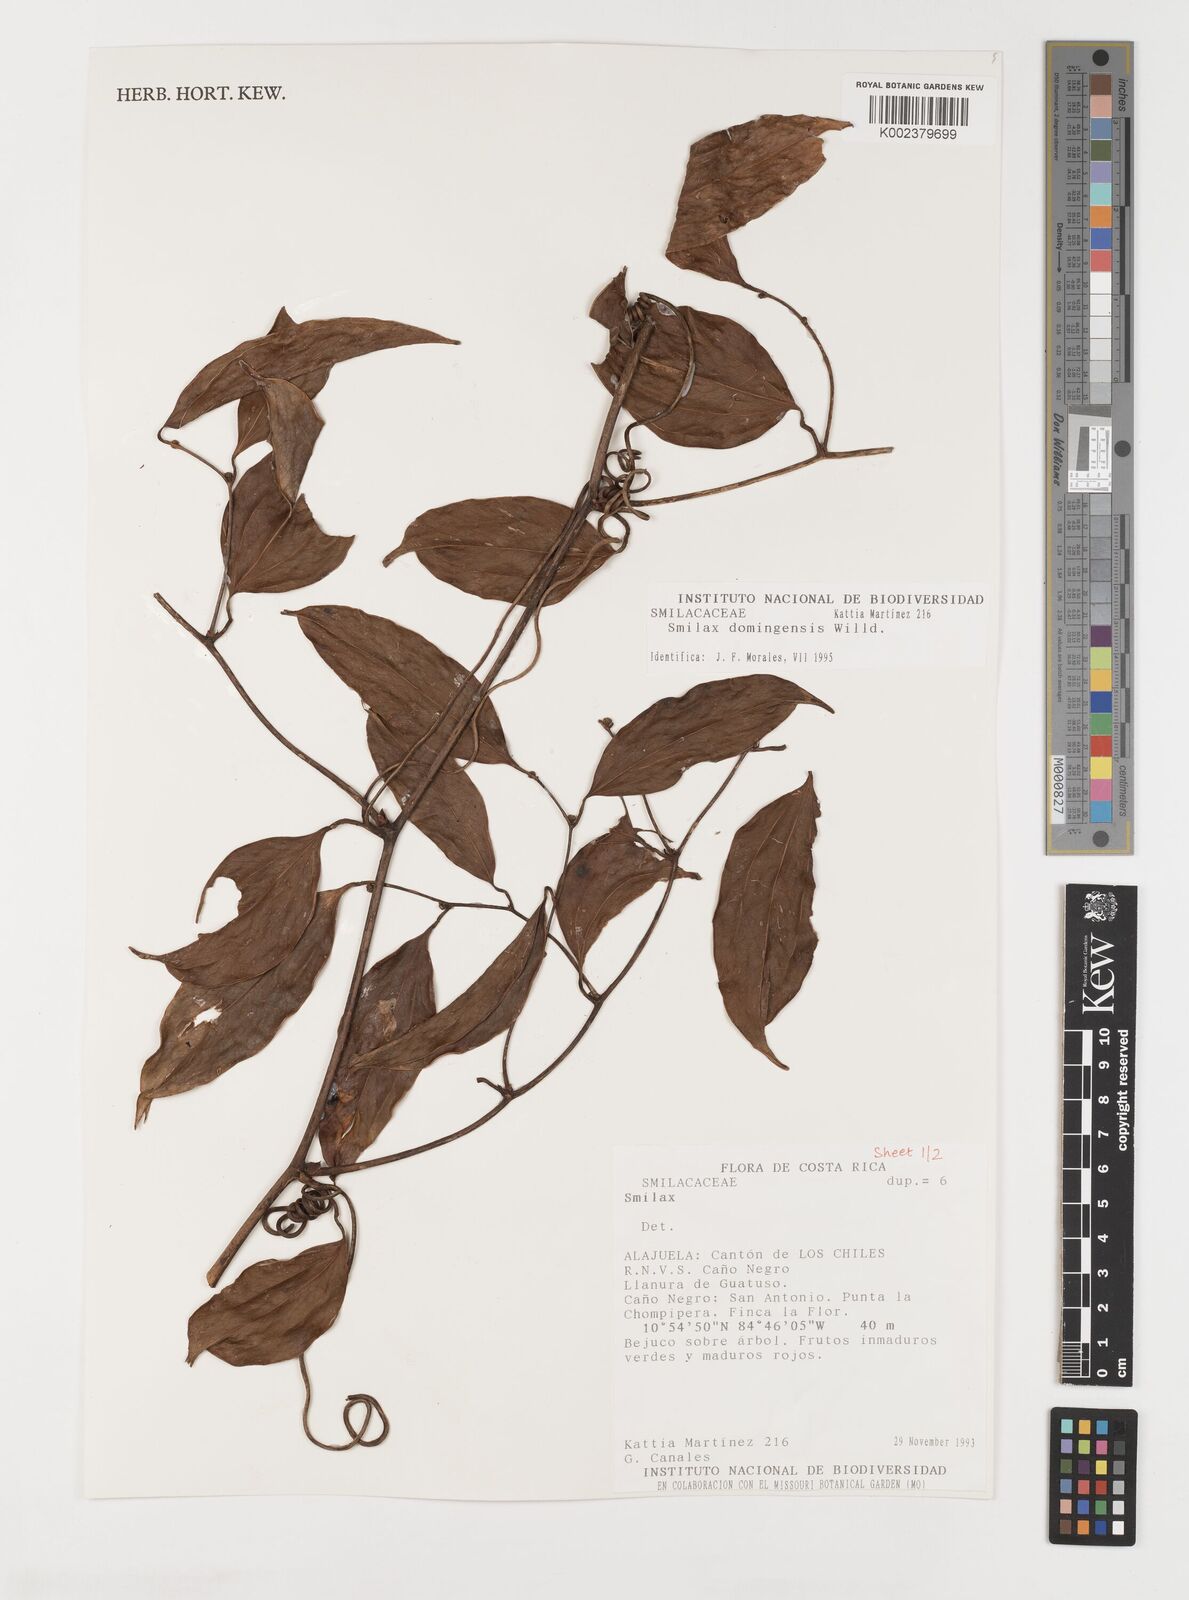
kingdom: Plantae
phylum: Tracheophyta
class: Liliopsida
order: Liliales
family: Smilacaceae
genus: Smilax
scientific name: Smilax domingensis
